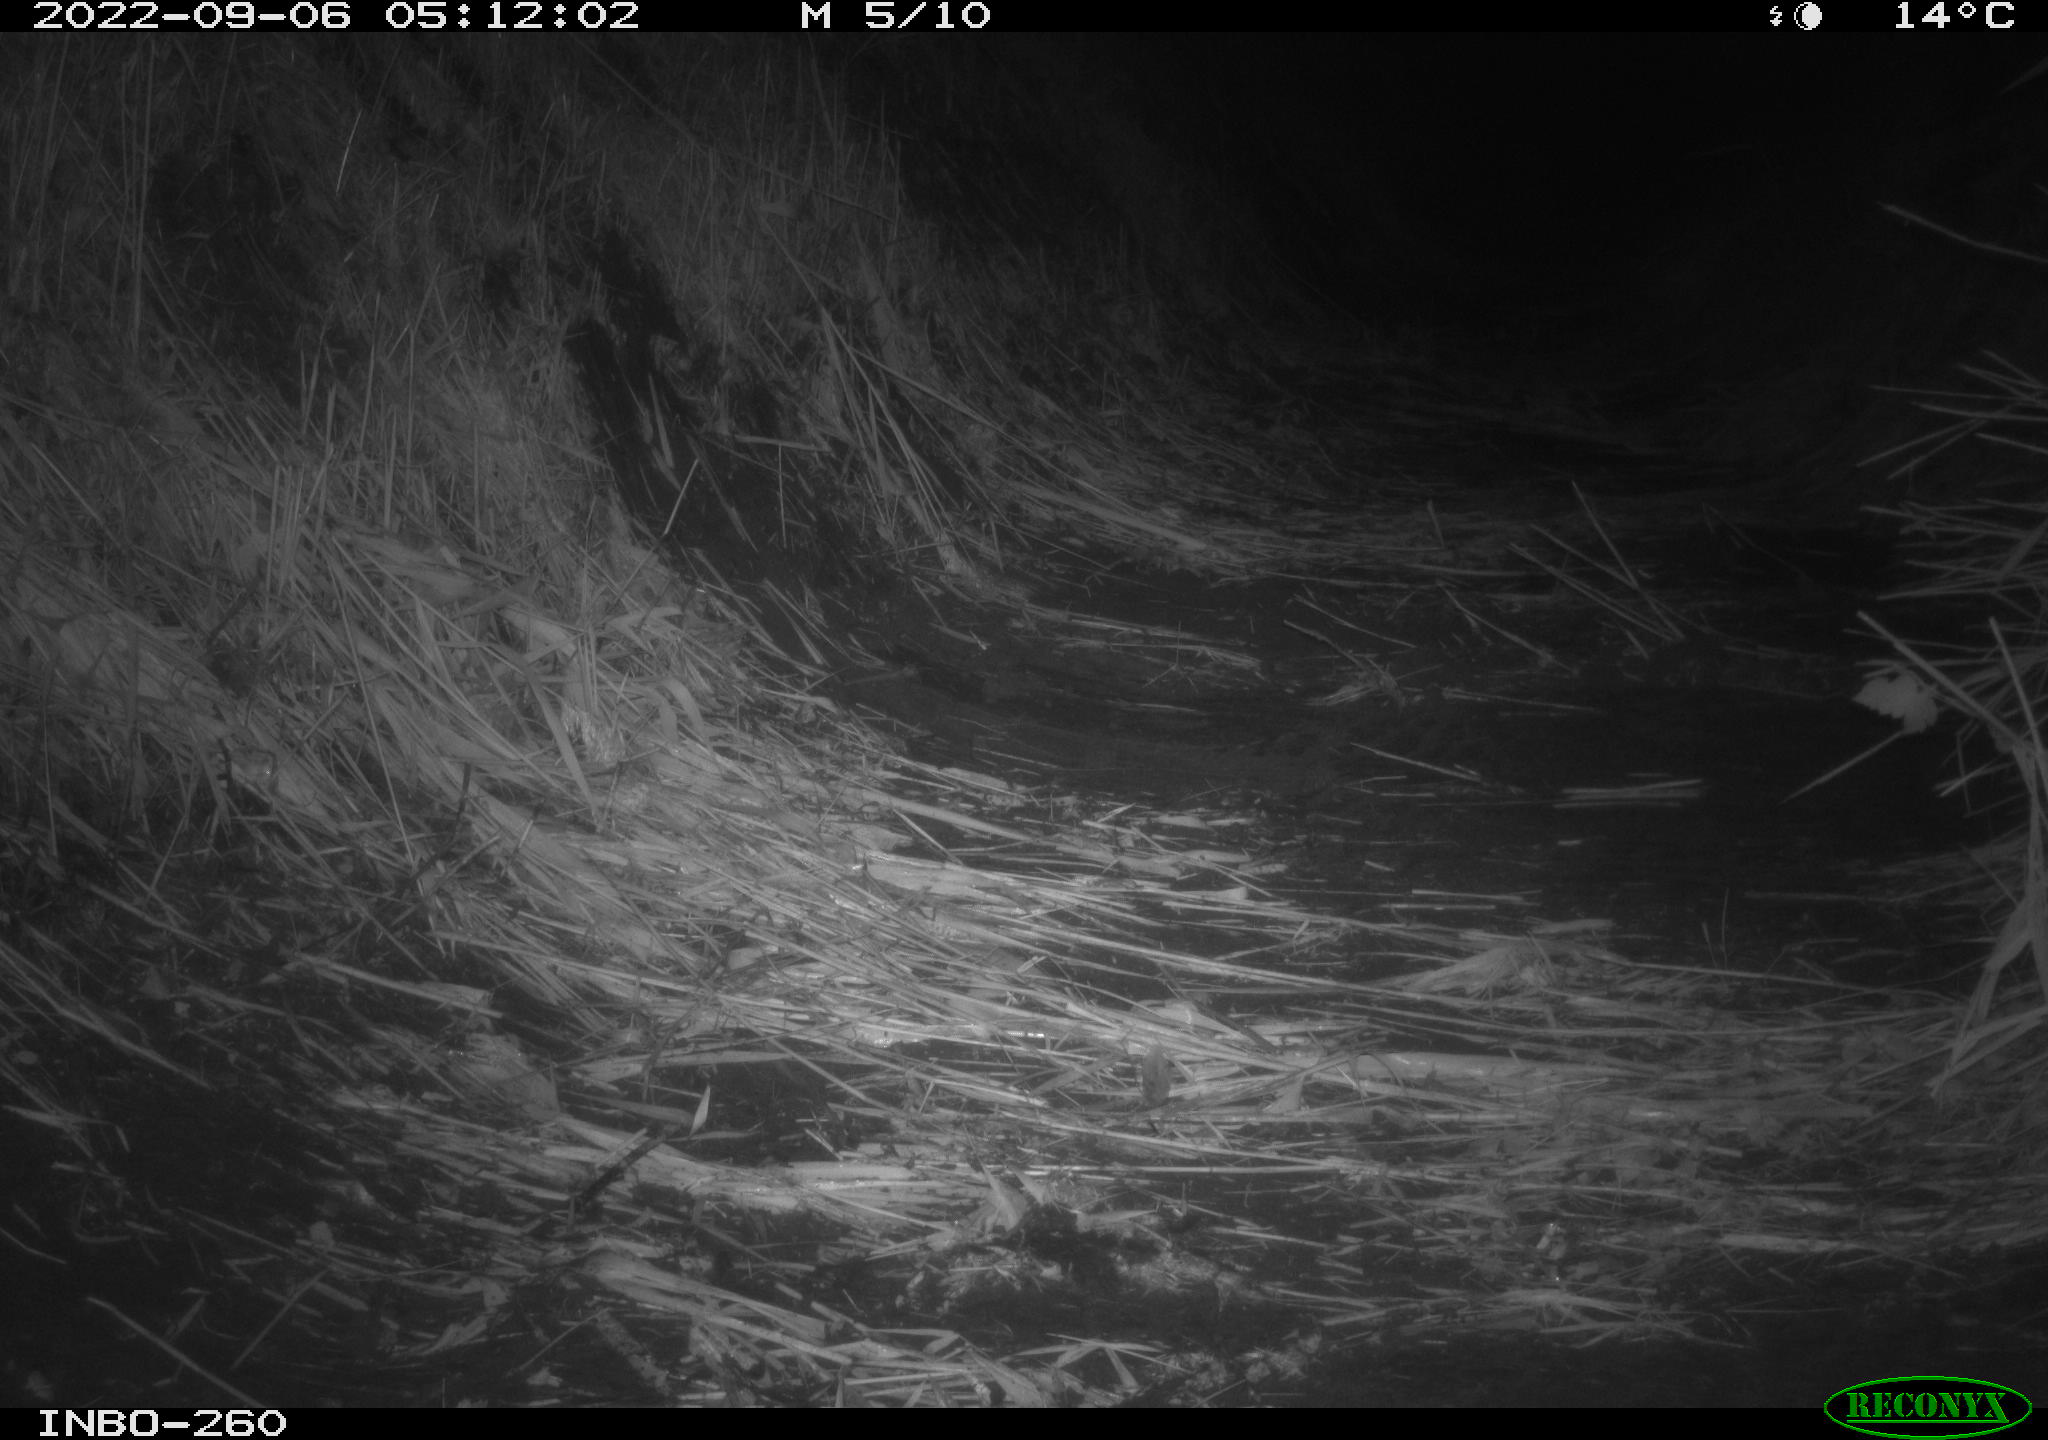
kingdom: Animalia
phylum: Chordata
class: Mammalia
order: Rodentia
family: Muridae
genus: Rattus
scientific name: Rattus norvegicus
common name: Brown rat
